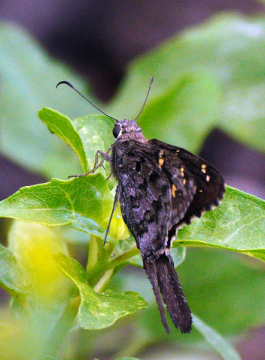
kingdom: Animalia
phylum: Arthropoda
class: Insecta
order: Lepidoptera
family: Hesperiidae
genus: Urbanus
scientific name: Urbanus dorantes
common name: Dorantes Longtail
